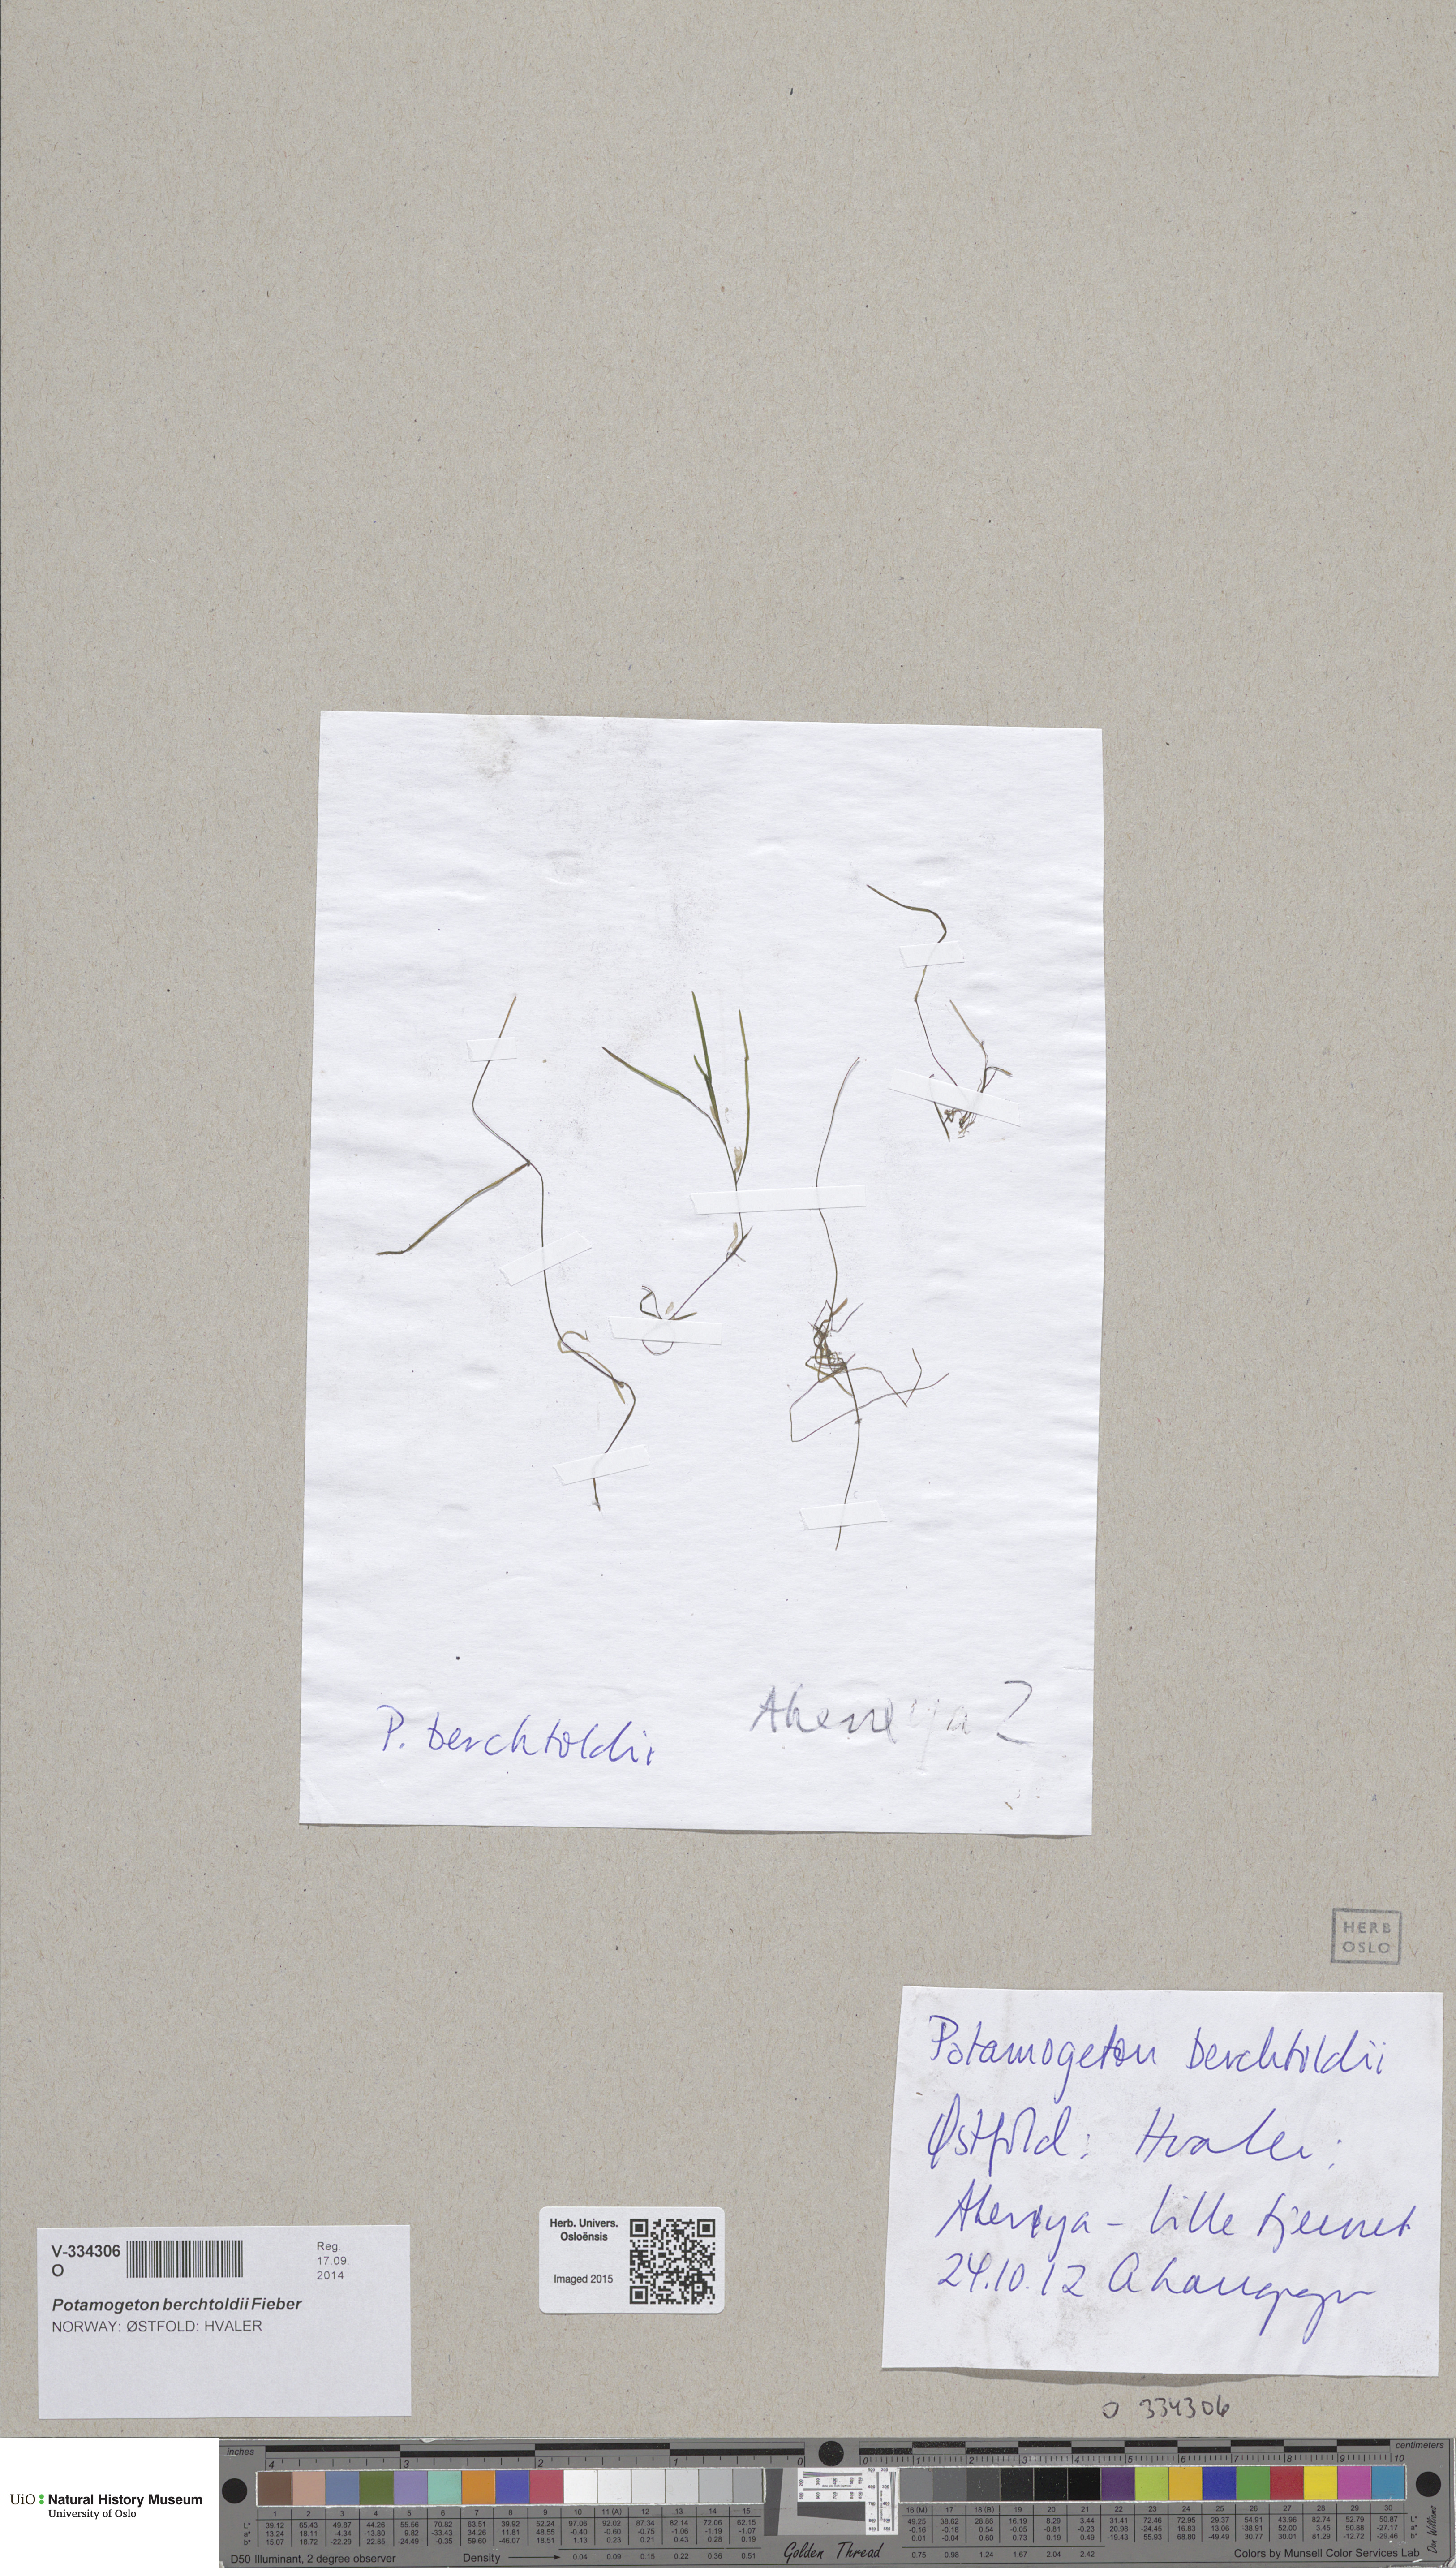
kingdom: Plantae
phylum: Tracheophyta
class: Liliopsida
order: Alismatales
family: Potamogetonaceae
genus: Potamogeton
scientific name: Potamogeton pusillus
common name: Lesser pondweed
